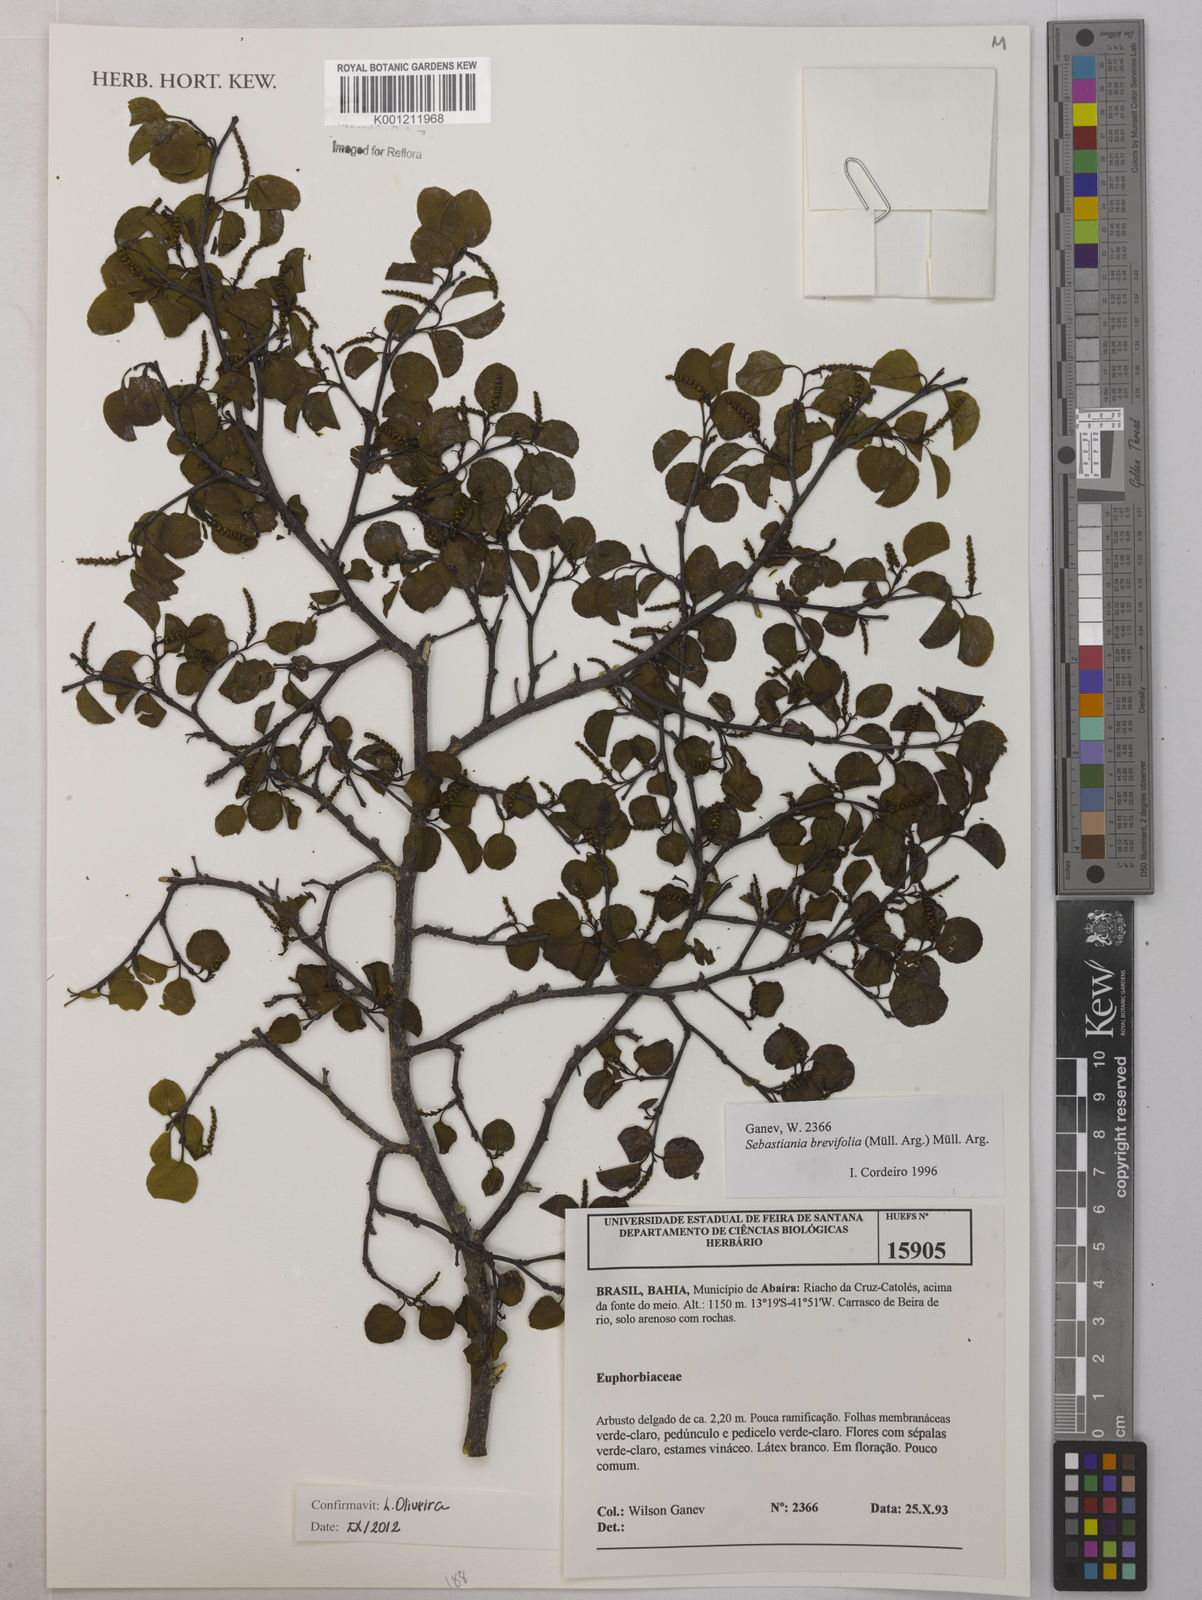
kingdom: Plantae
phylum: Tracheophyta
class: Magnoliopsida
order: Malpighiales
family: Euphorbiaceae
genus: Sebastiania
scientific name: Sebastiania
